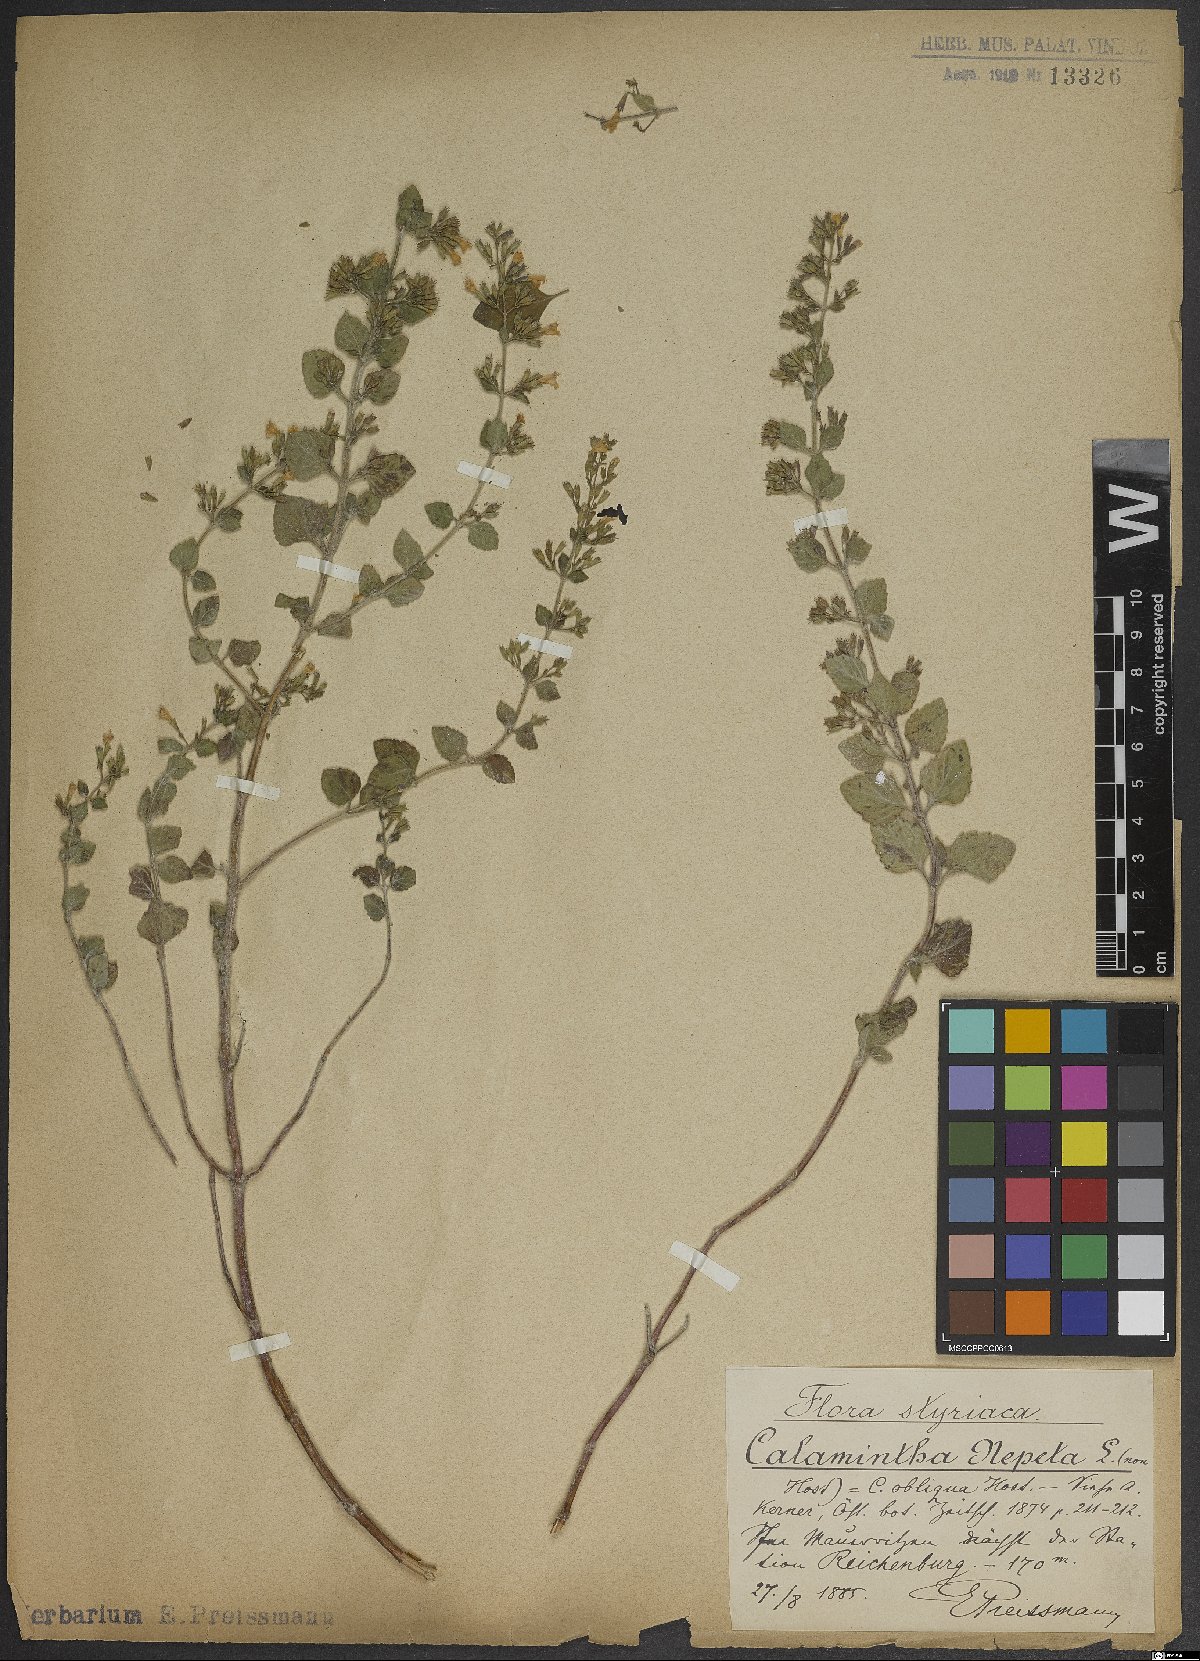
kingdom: Plantae
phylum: Tracheophyta
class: Magnoliopsida
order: Lamiales
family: Lamiaceae
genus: Clinopodium
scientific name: Clinopodium nepeta
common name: Lesser calamint
